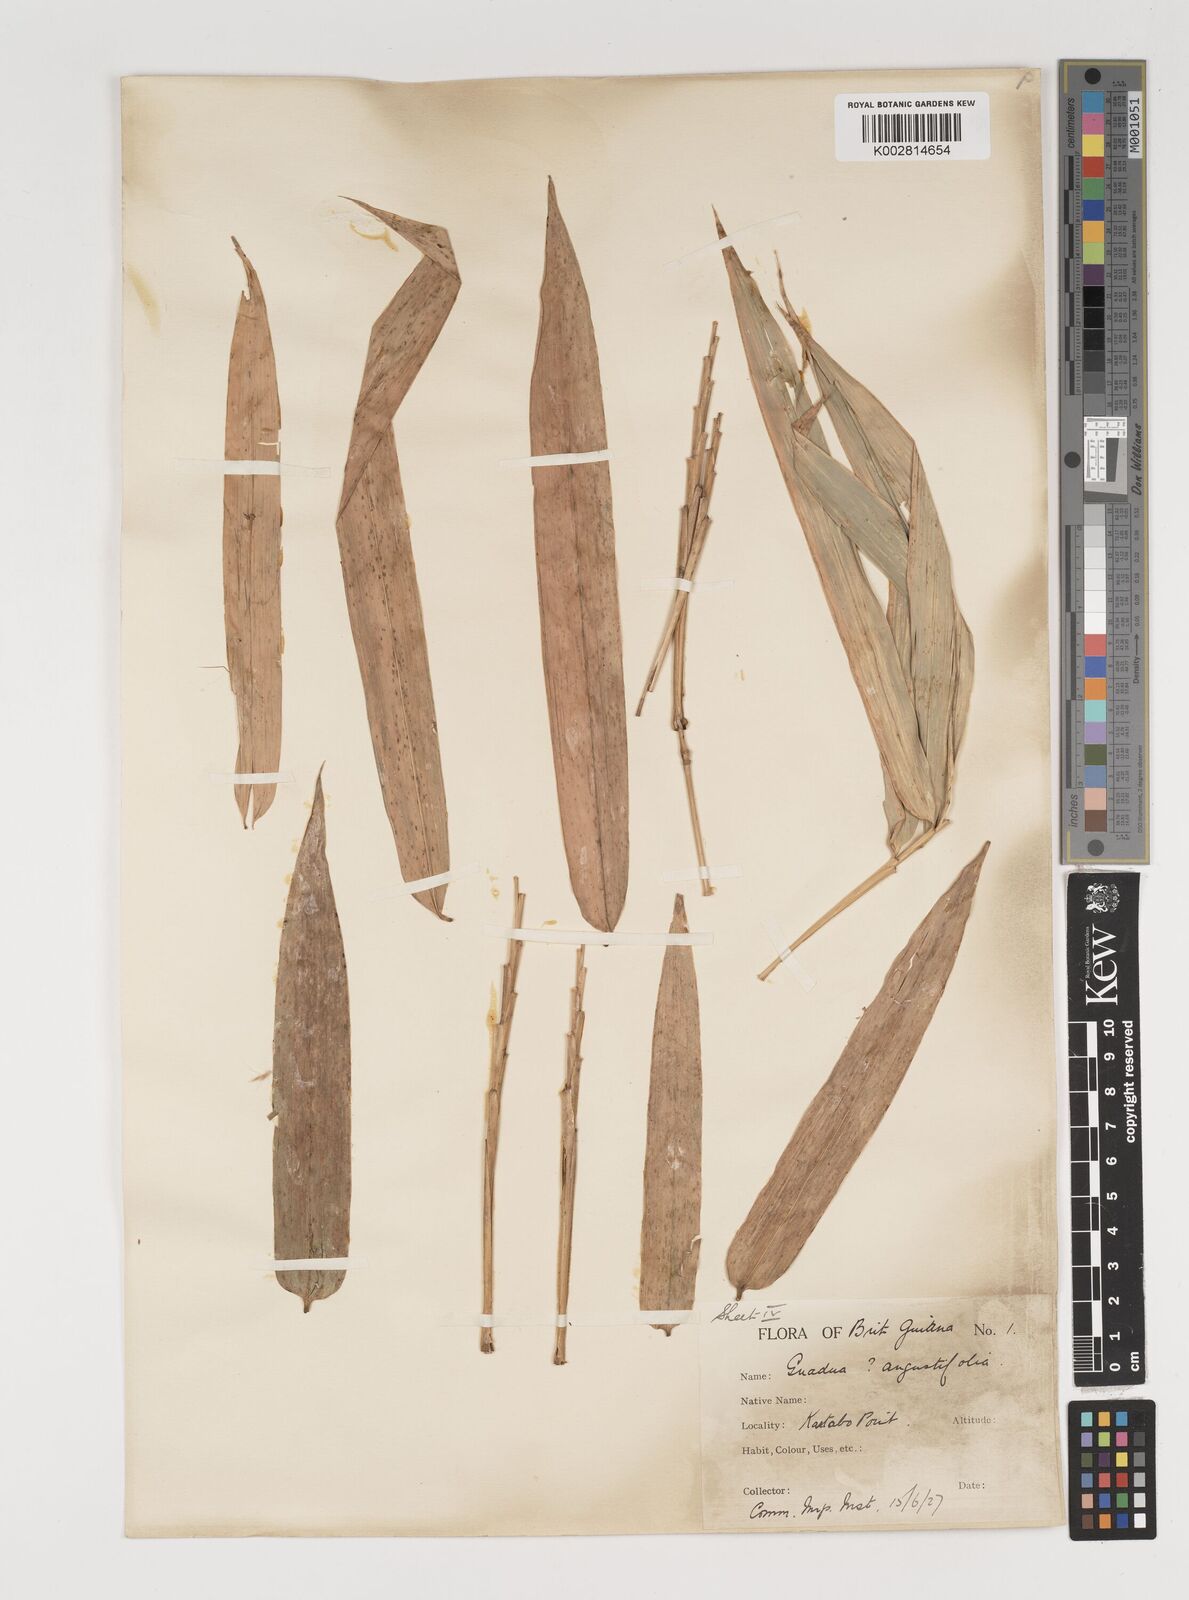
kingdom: Plantae
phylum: Tracheophyta
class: Liliopsida
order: Poales
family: Poaceae
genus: Guadua
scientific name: Guadua angustifolia
